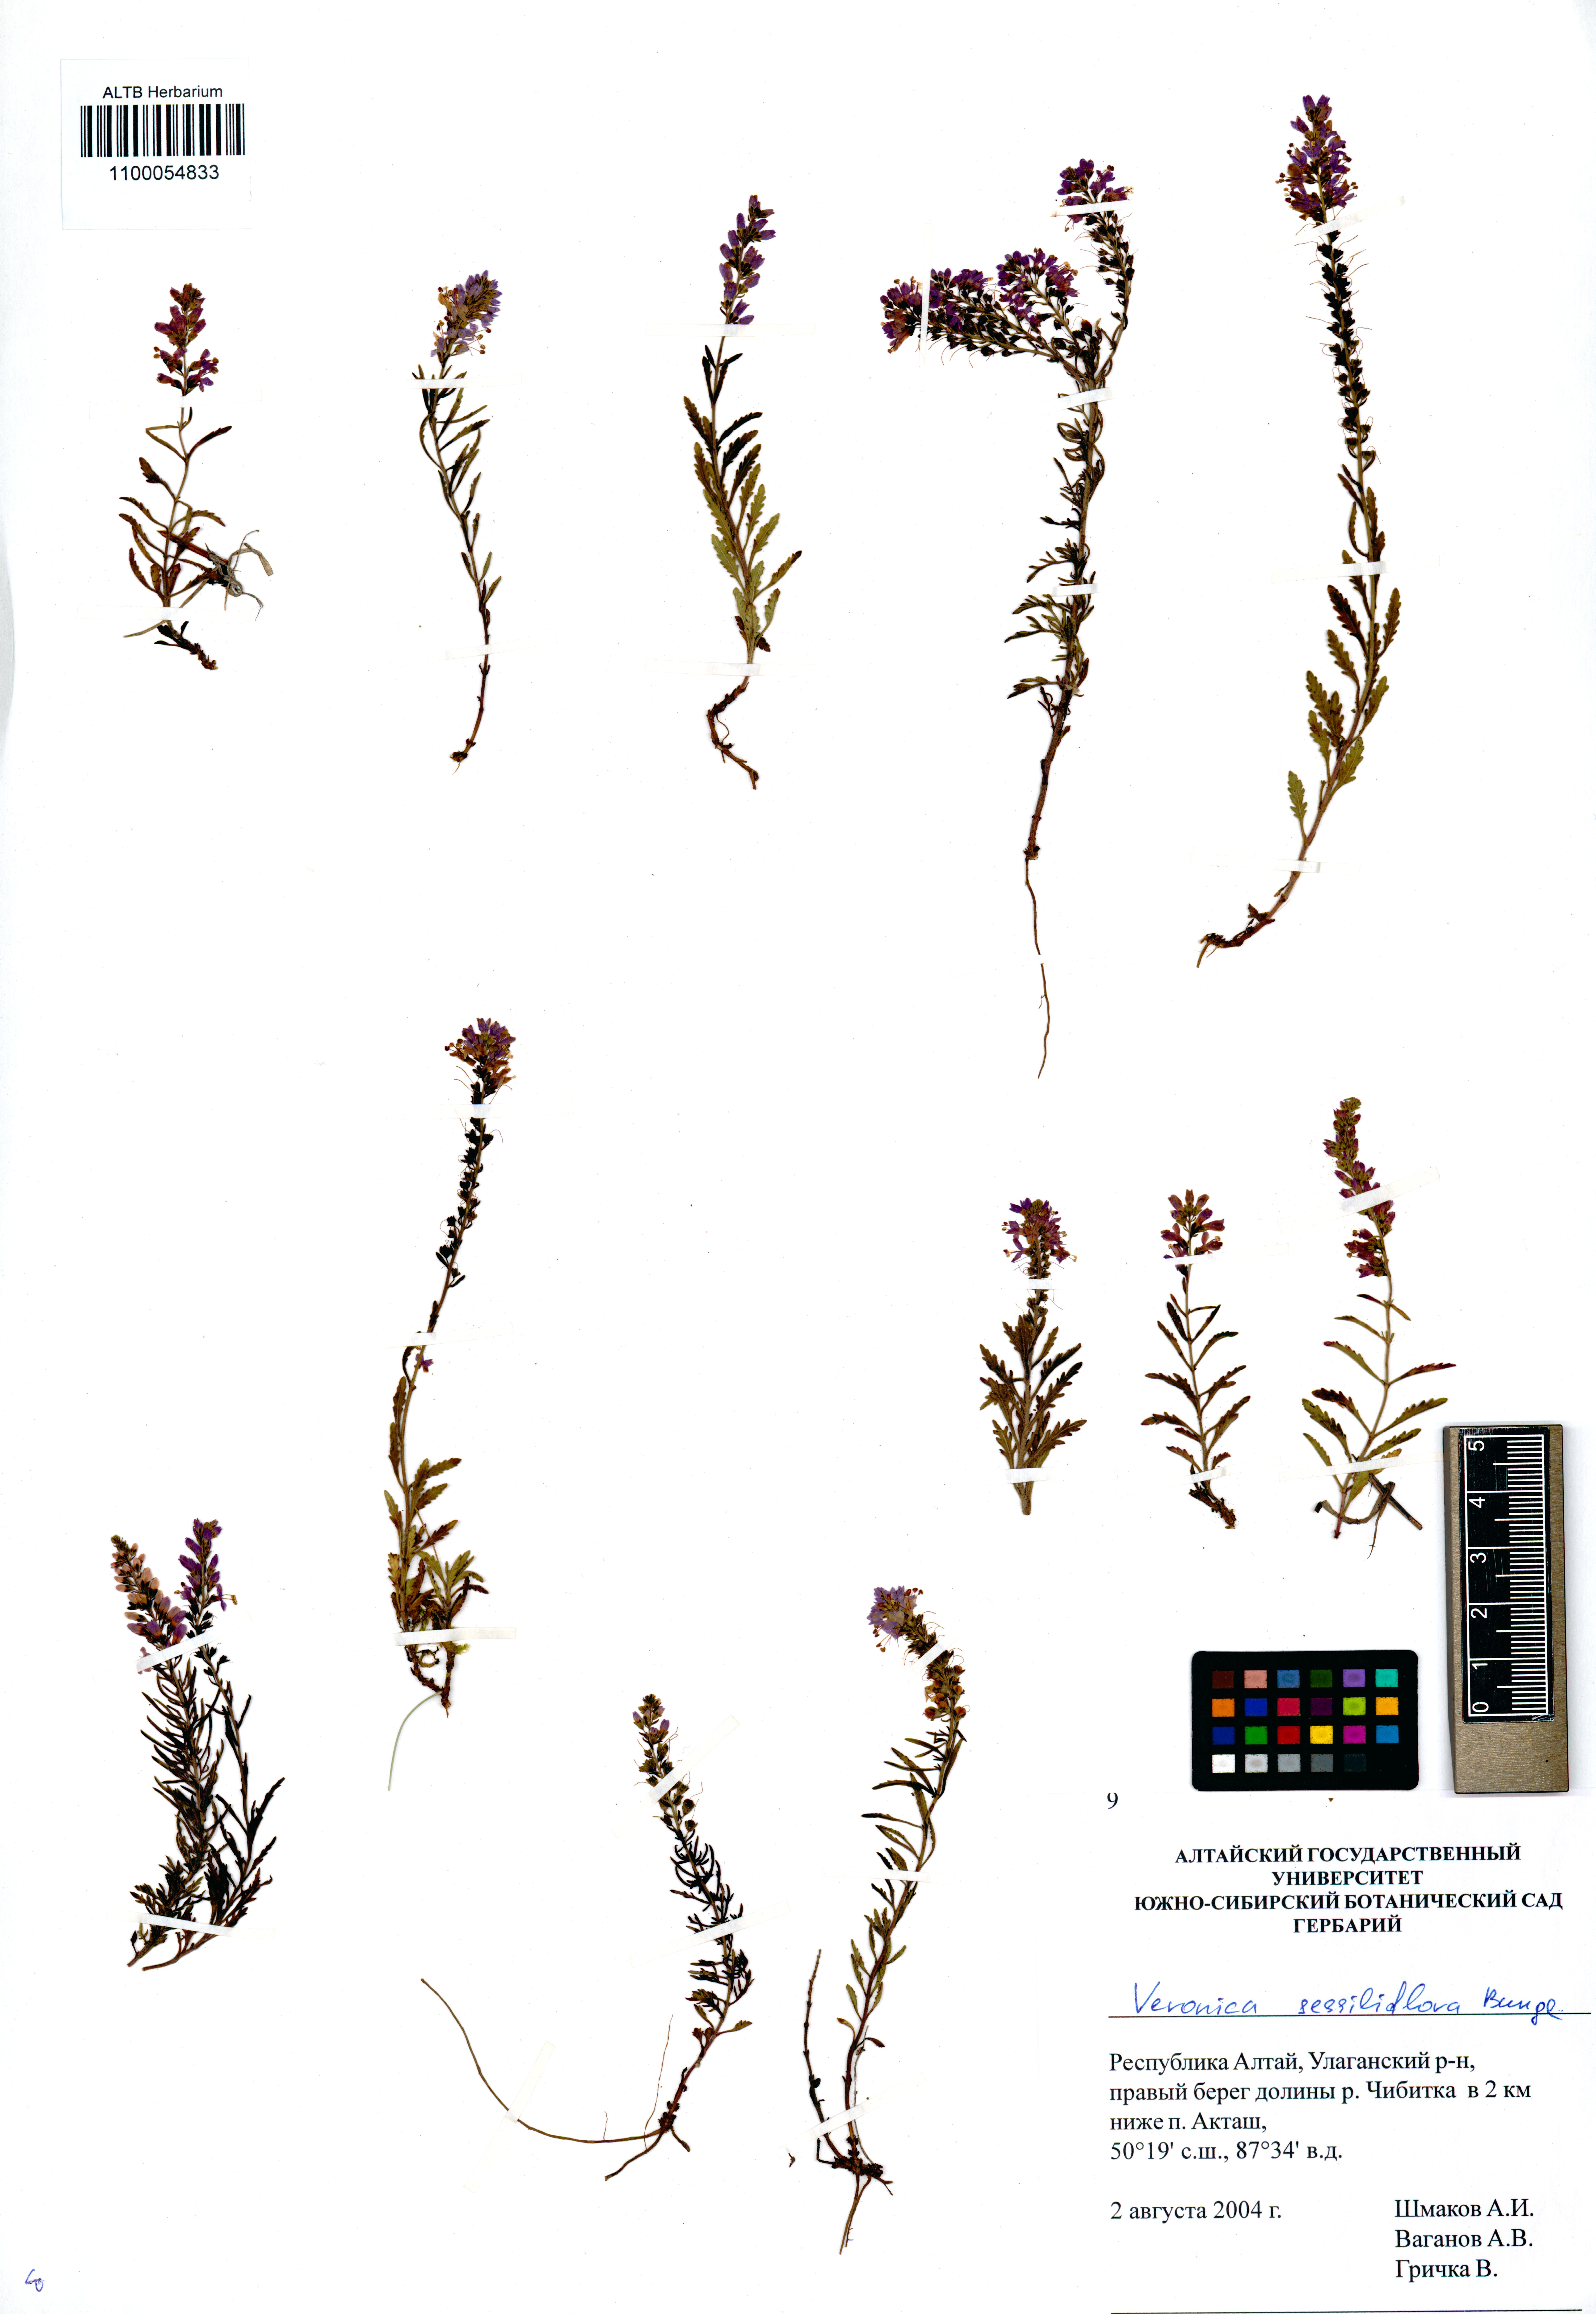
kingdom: Plantae
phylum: Tracheophyta
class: Magnoliopsida
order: Lamiales
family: Plantaginaceae
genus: Veronica
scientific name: Veronica sessiliflora
